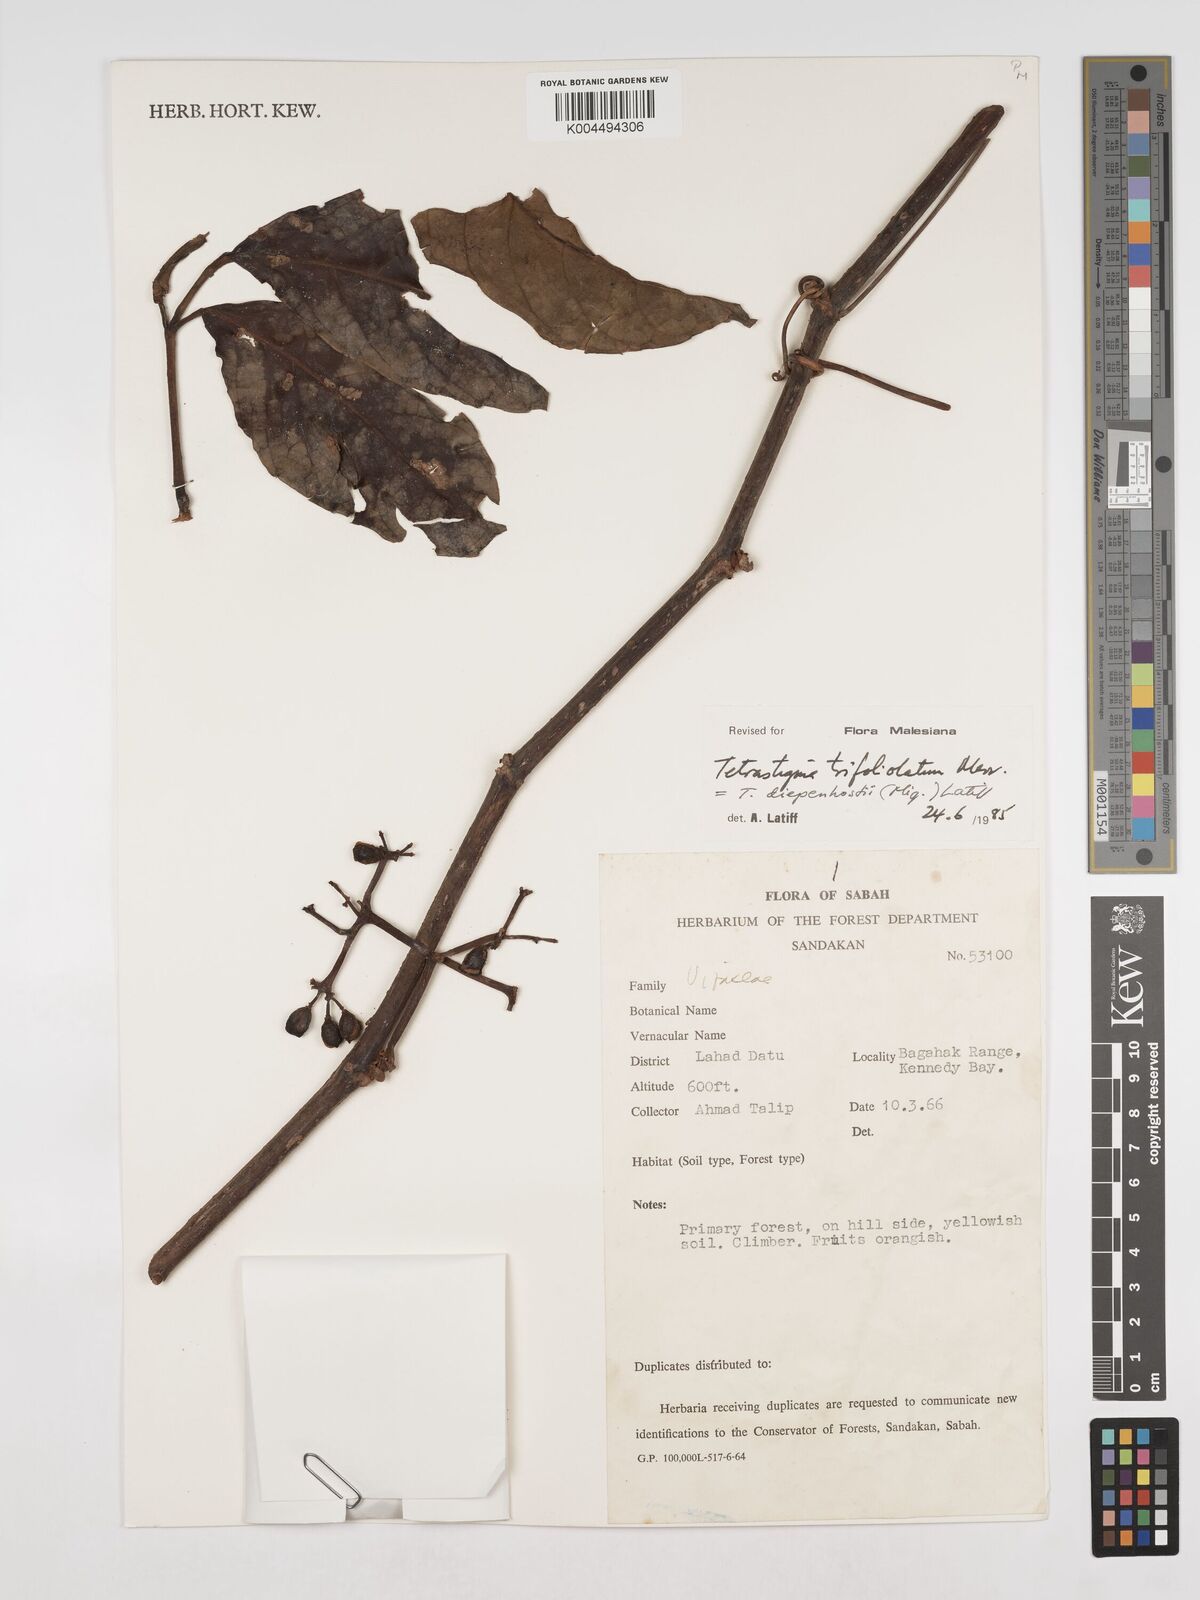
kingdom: Plantae
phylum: Tracheophyta
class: Magnoliopsida
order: Vitales
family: Vitaceae
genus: Tetrastigma
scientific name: Tetrastigma trifoliolatum
